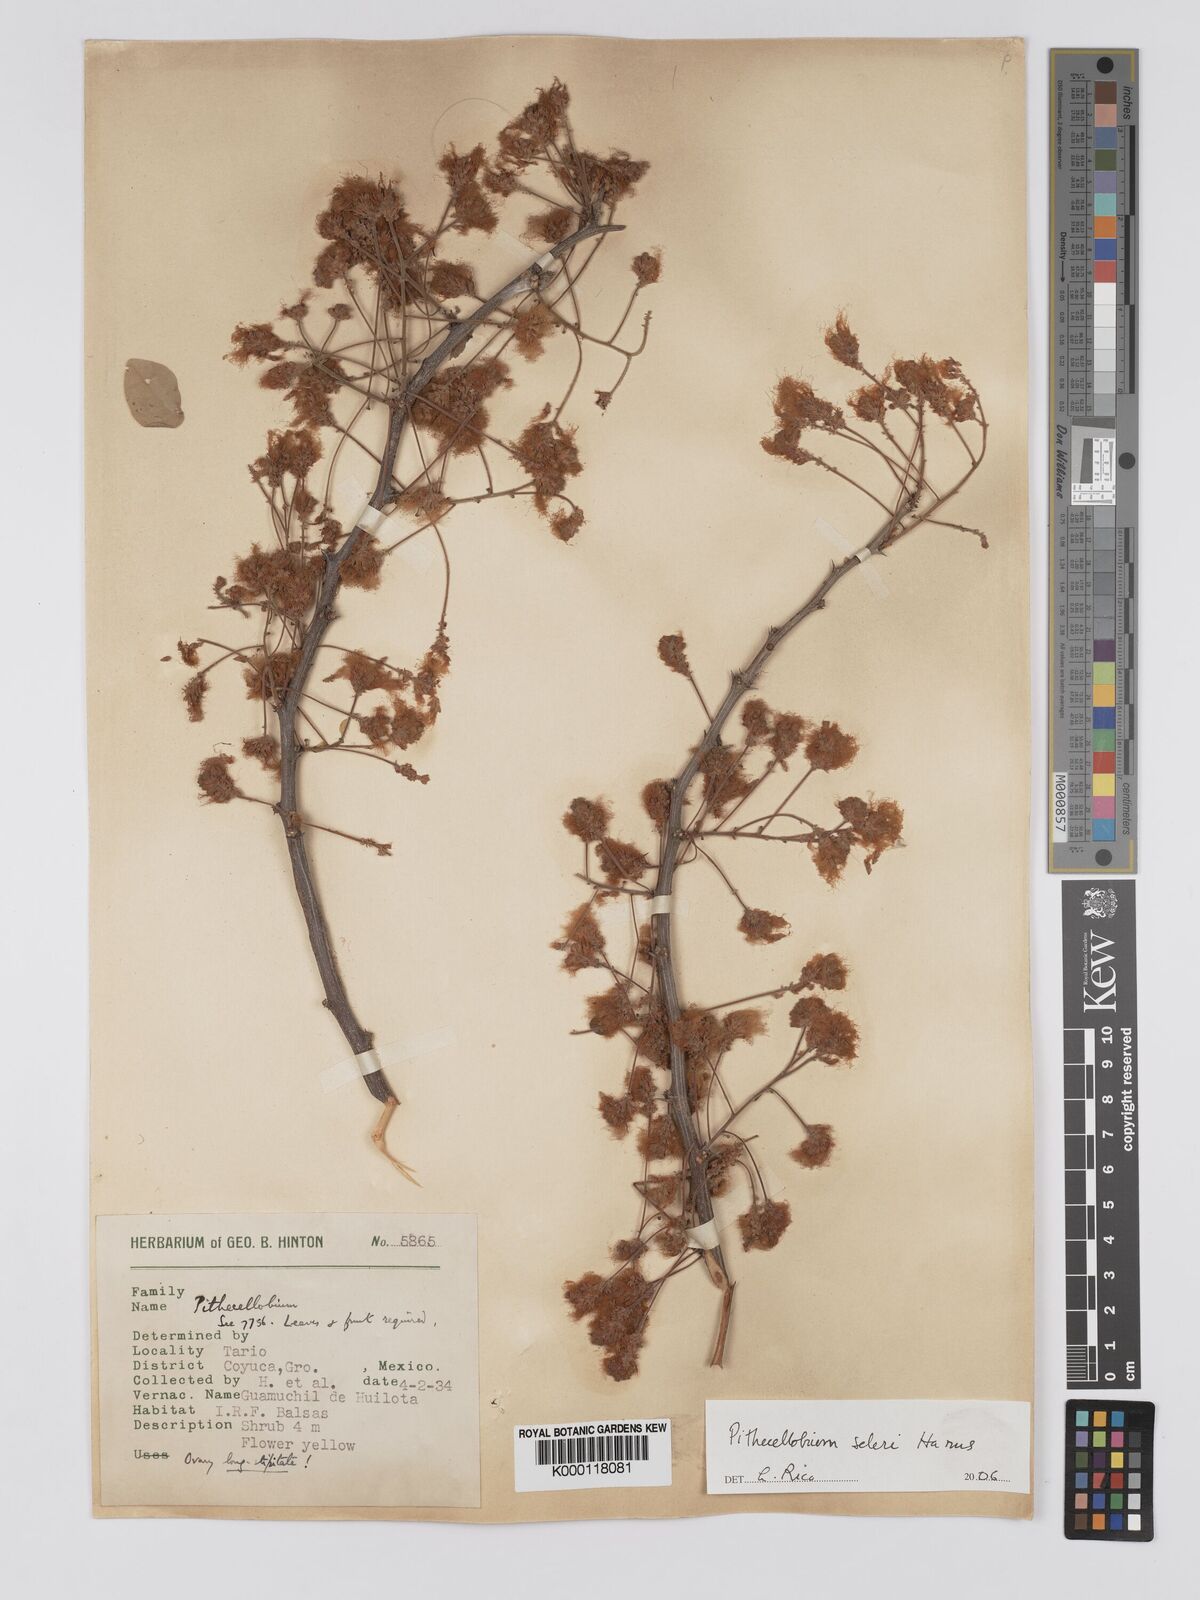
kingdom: Plantae
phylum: Tracheophyta
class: Magnoliopsida
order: Fabales
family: Fabaceae
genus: Pithecellobium
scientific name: Pithecellobium dulce
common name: Monkeypod
